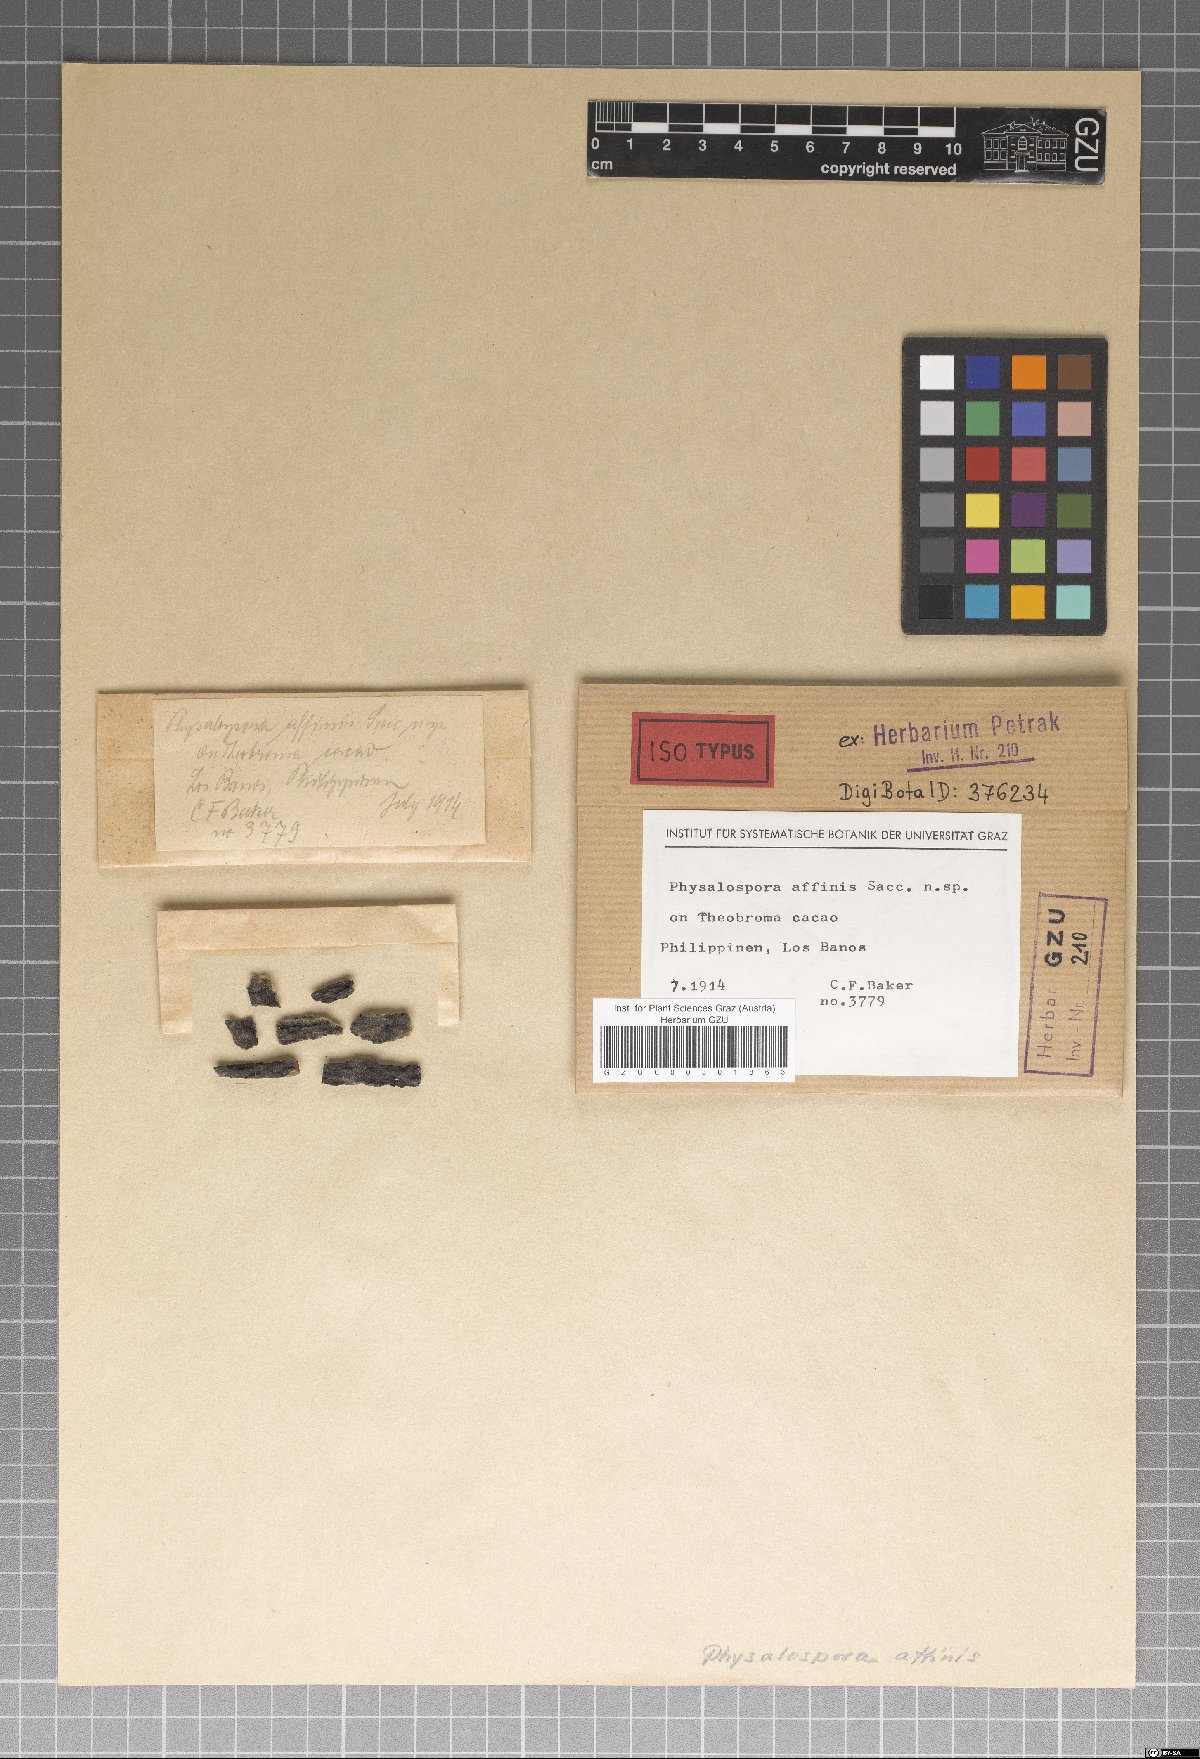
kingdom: Fungi
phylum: Ascomycota
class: Sordariomycetes
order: Xylariales
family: Hyponectriaceae
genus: Physalospora
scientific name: Physalospora affinis
